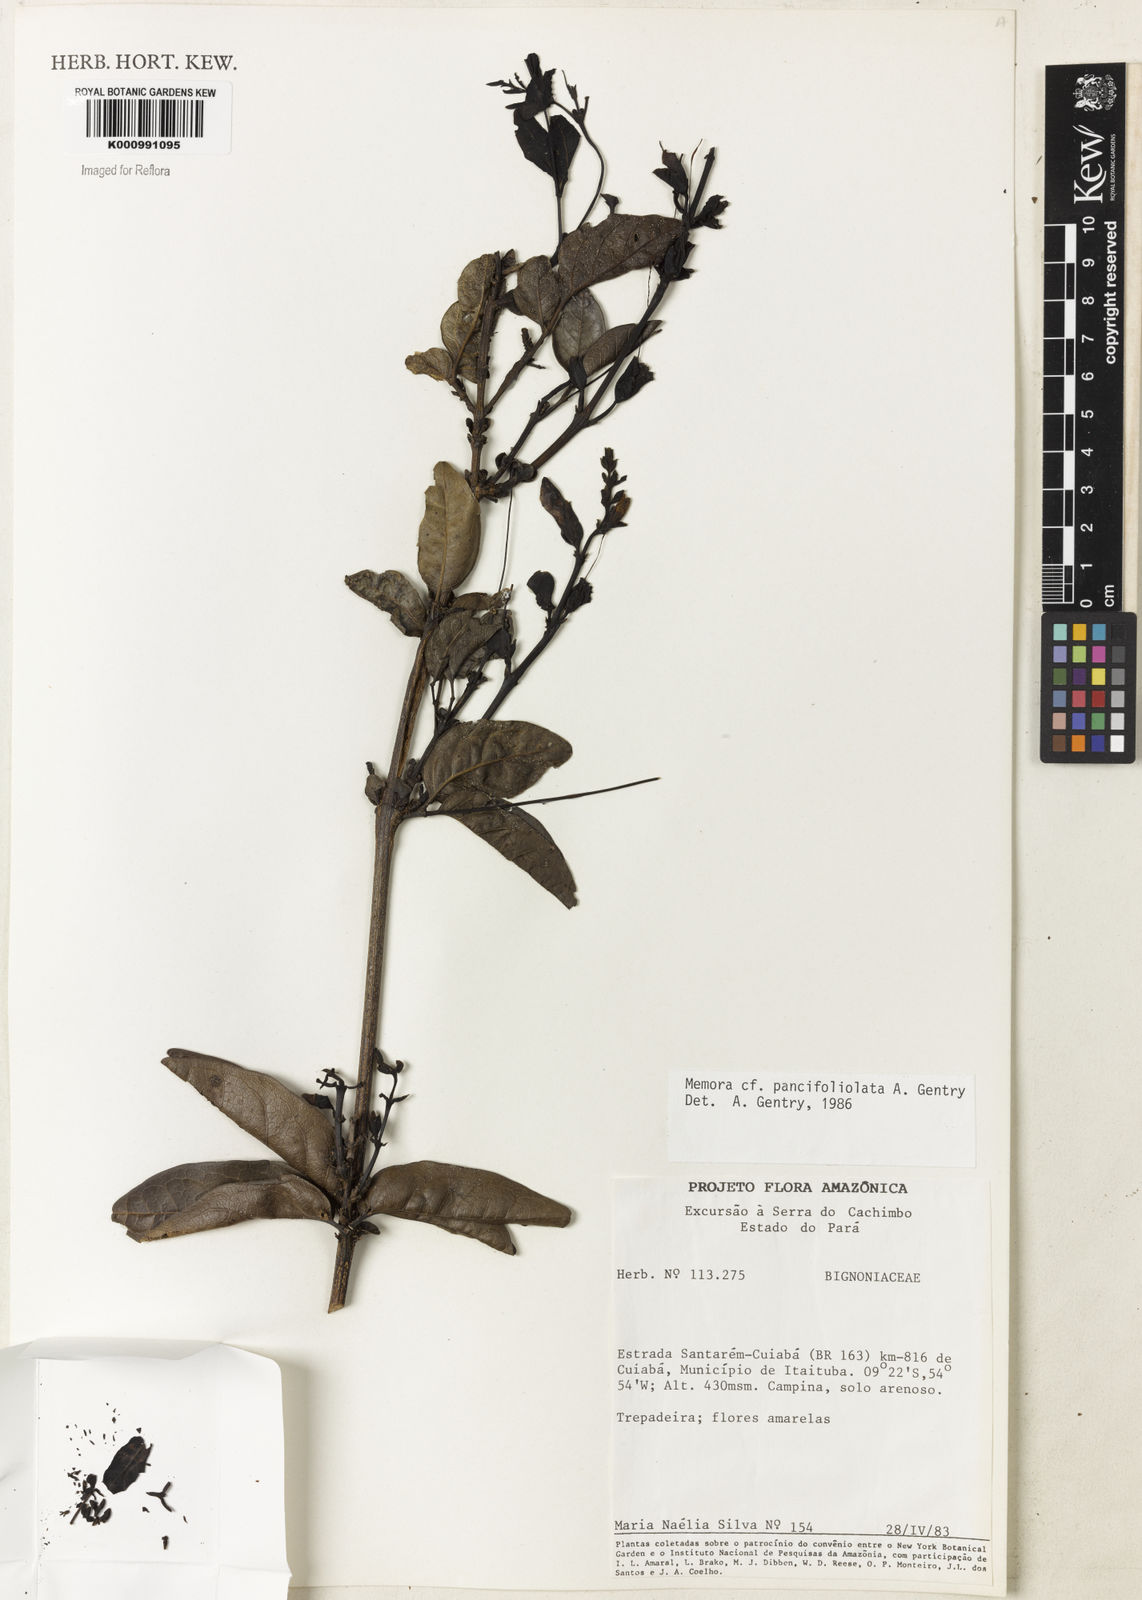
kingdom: Plantae
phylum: Tracheophyta
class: Magnoliopsida
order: Lamiales
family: Bignoniaceae
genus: Adenocalymma
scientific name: Adenocalymma paucifoliolatum
